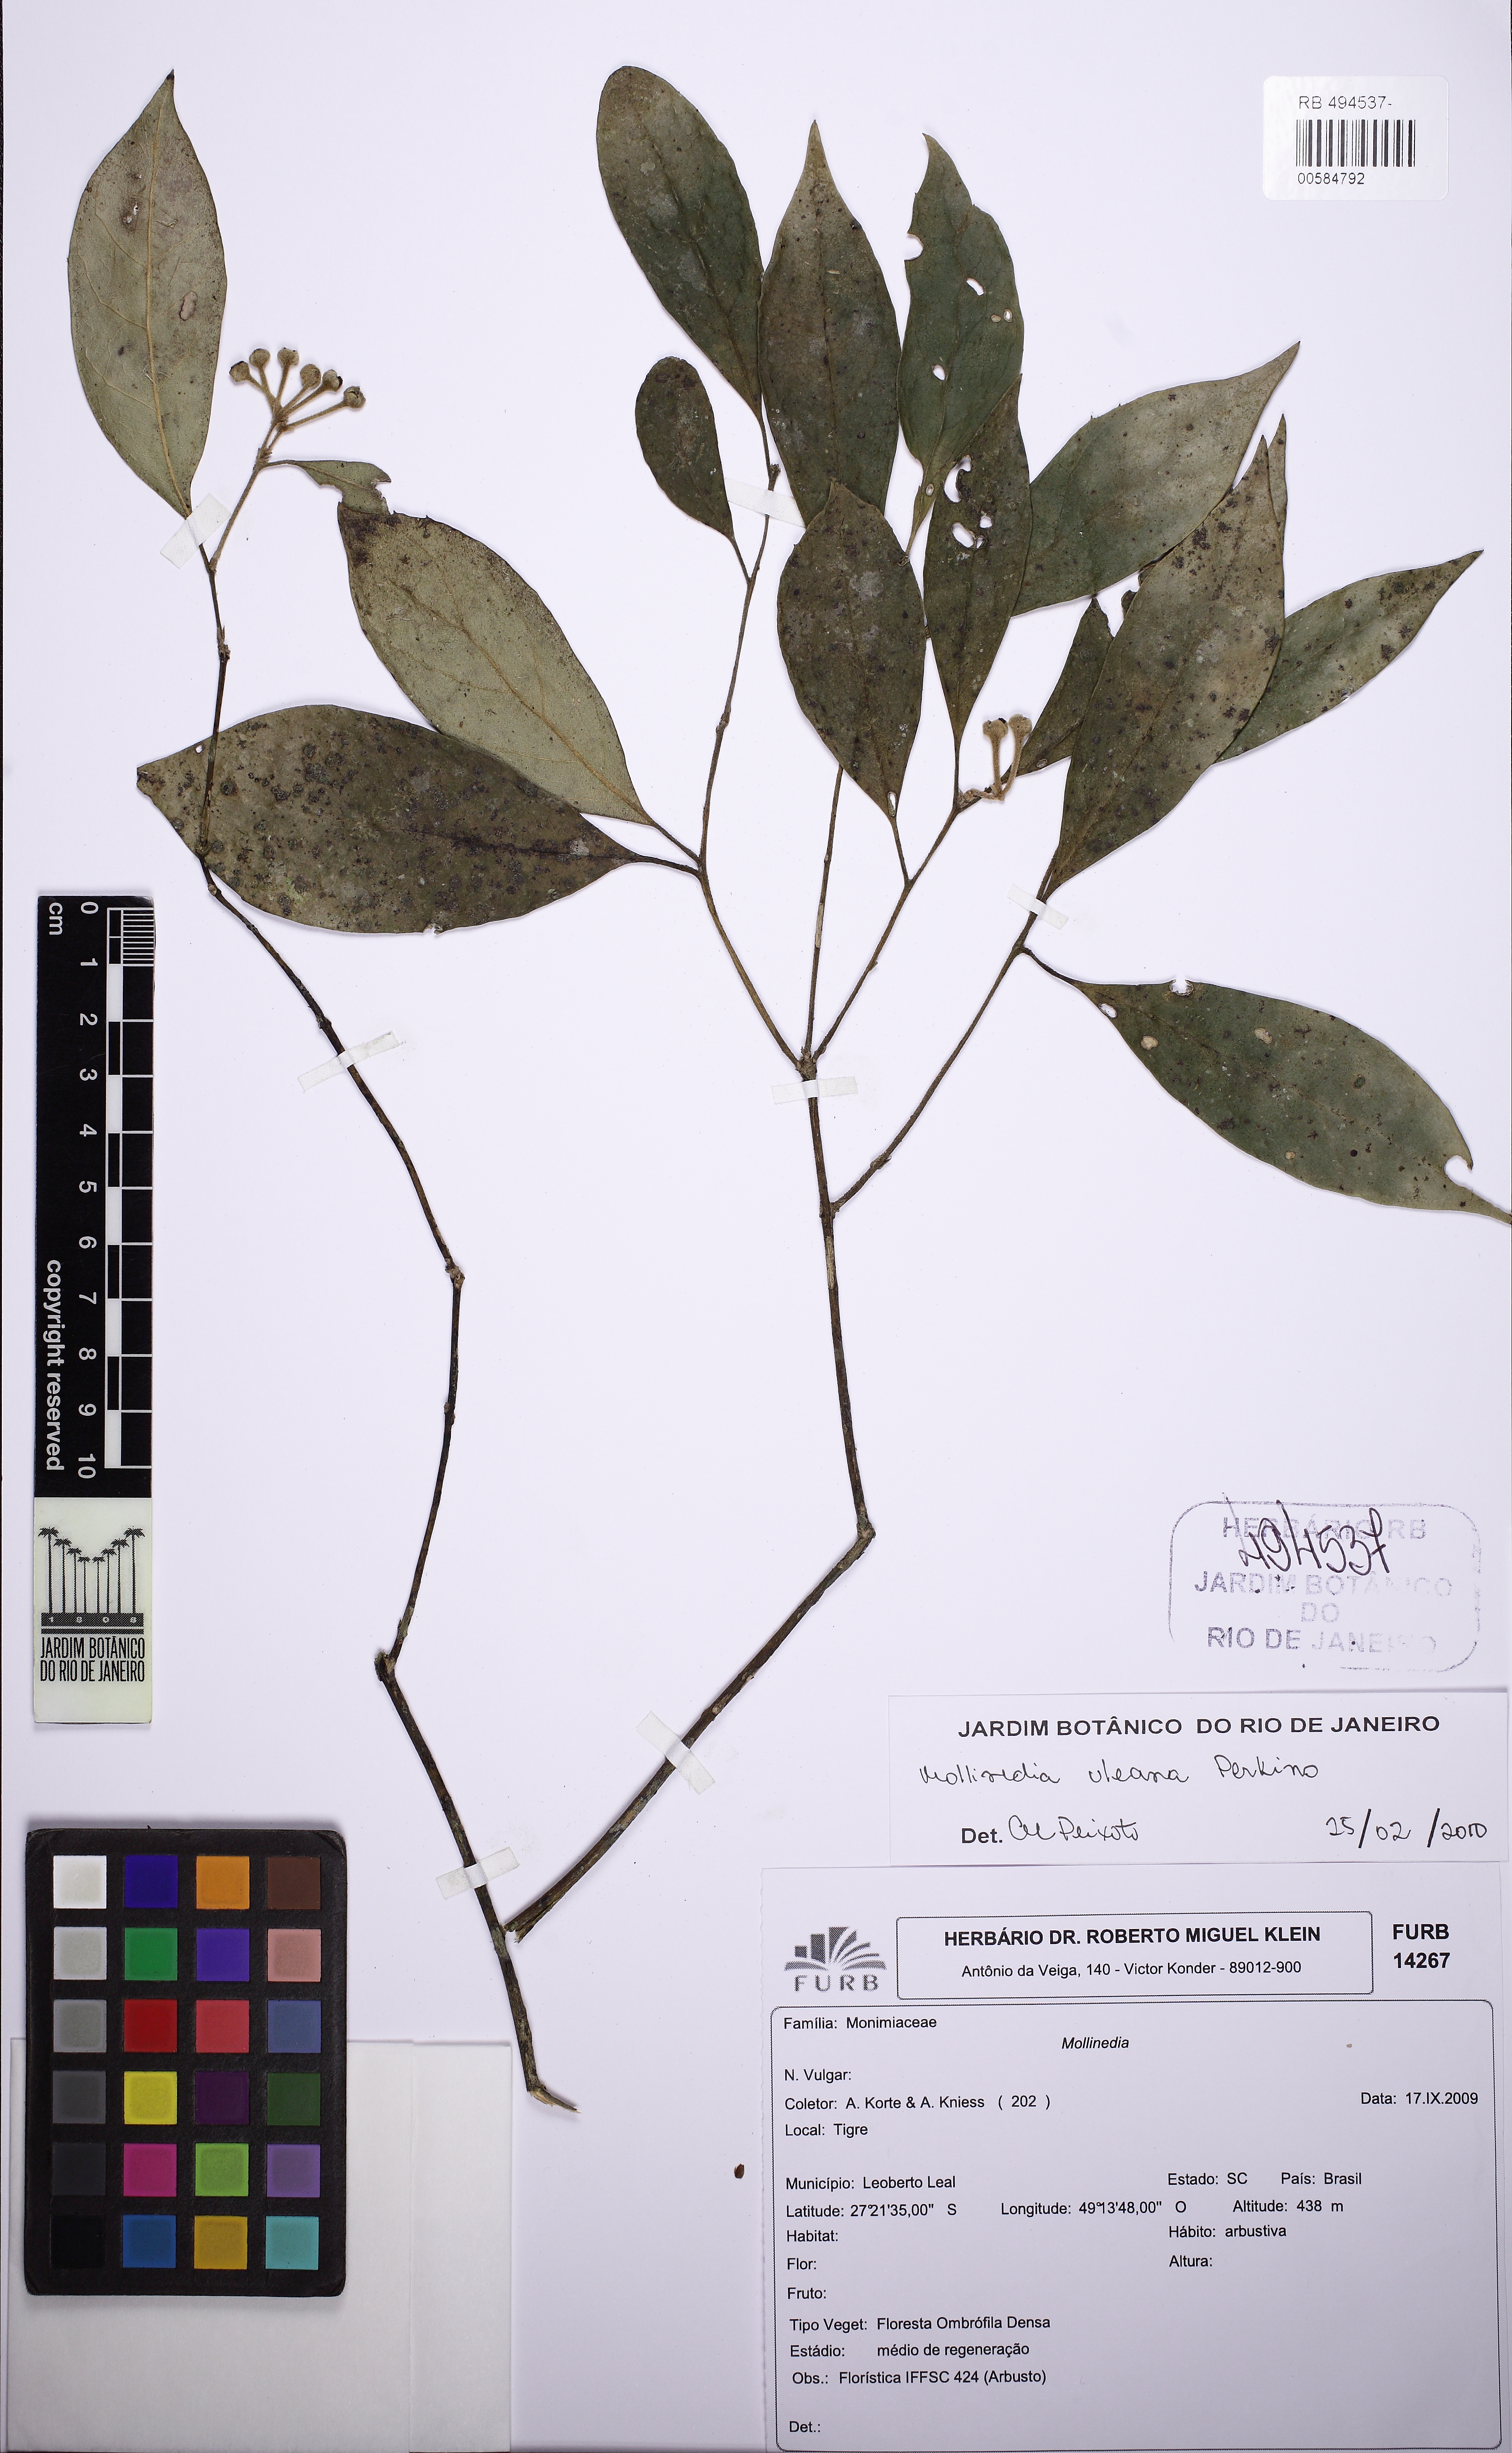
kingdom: Plantae
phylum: Tracheophyta
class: Magnoliopsida
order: Laurales
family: Monimiaceae
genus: Mollinedia
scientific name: Mollinedia triflora
